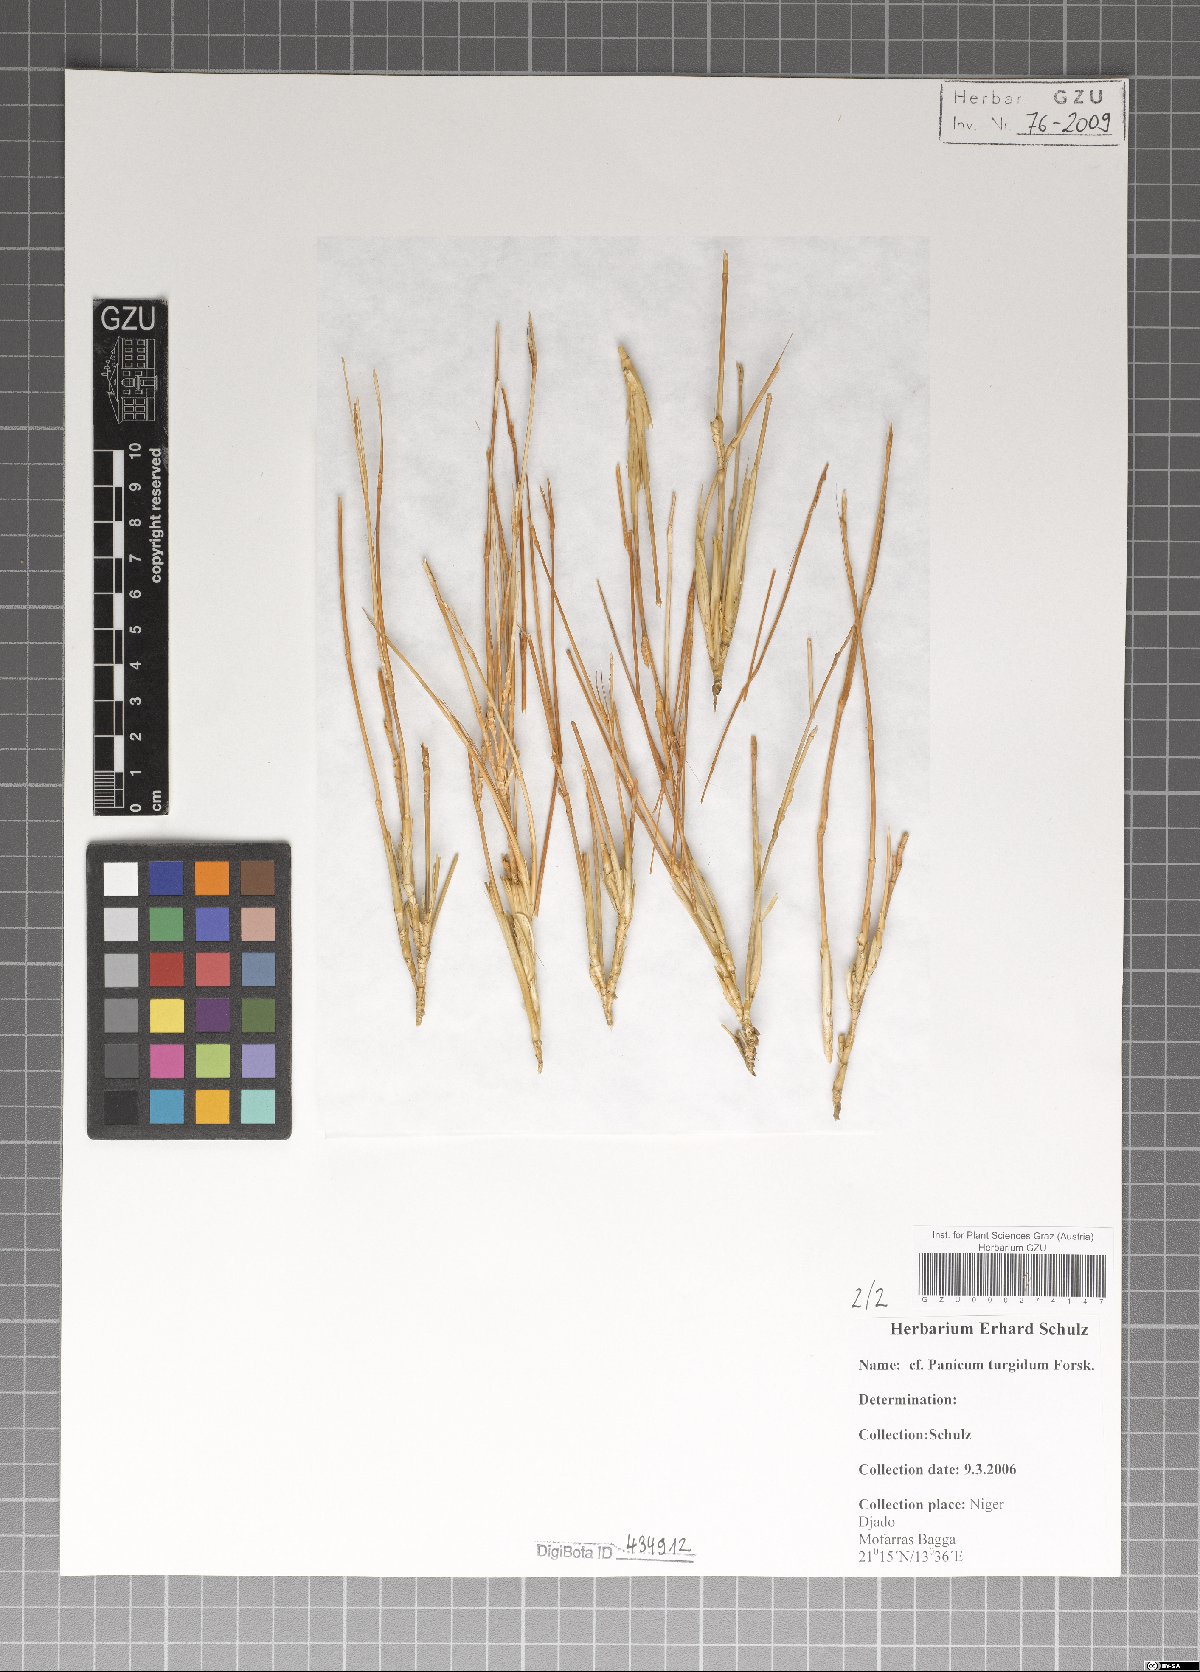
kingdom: Plantae
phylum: Tracheophyta
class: Liliopsida
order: Poales
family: Poaceae
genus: Panicum
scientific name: Panicum turgidum
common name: Desert grass
